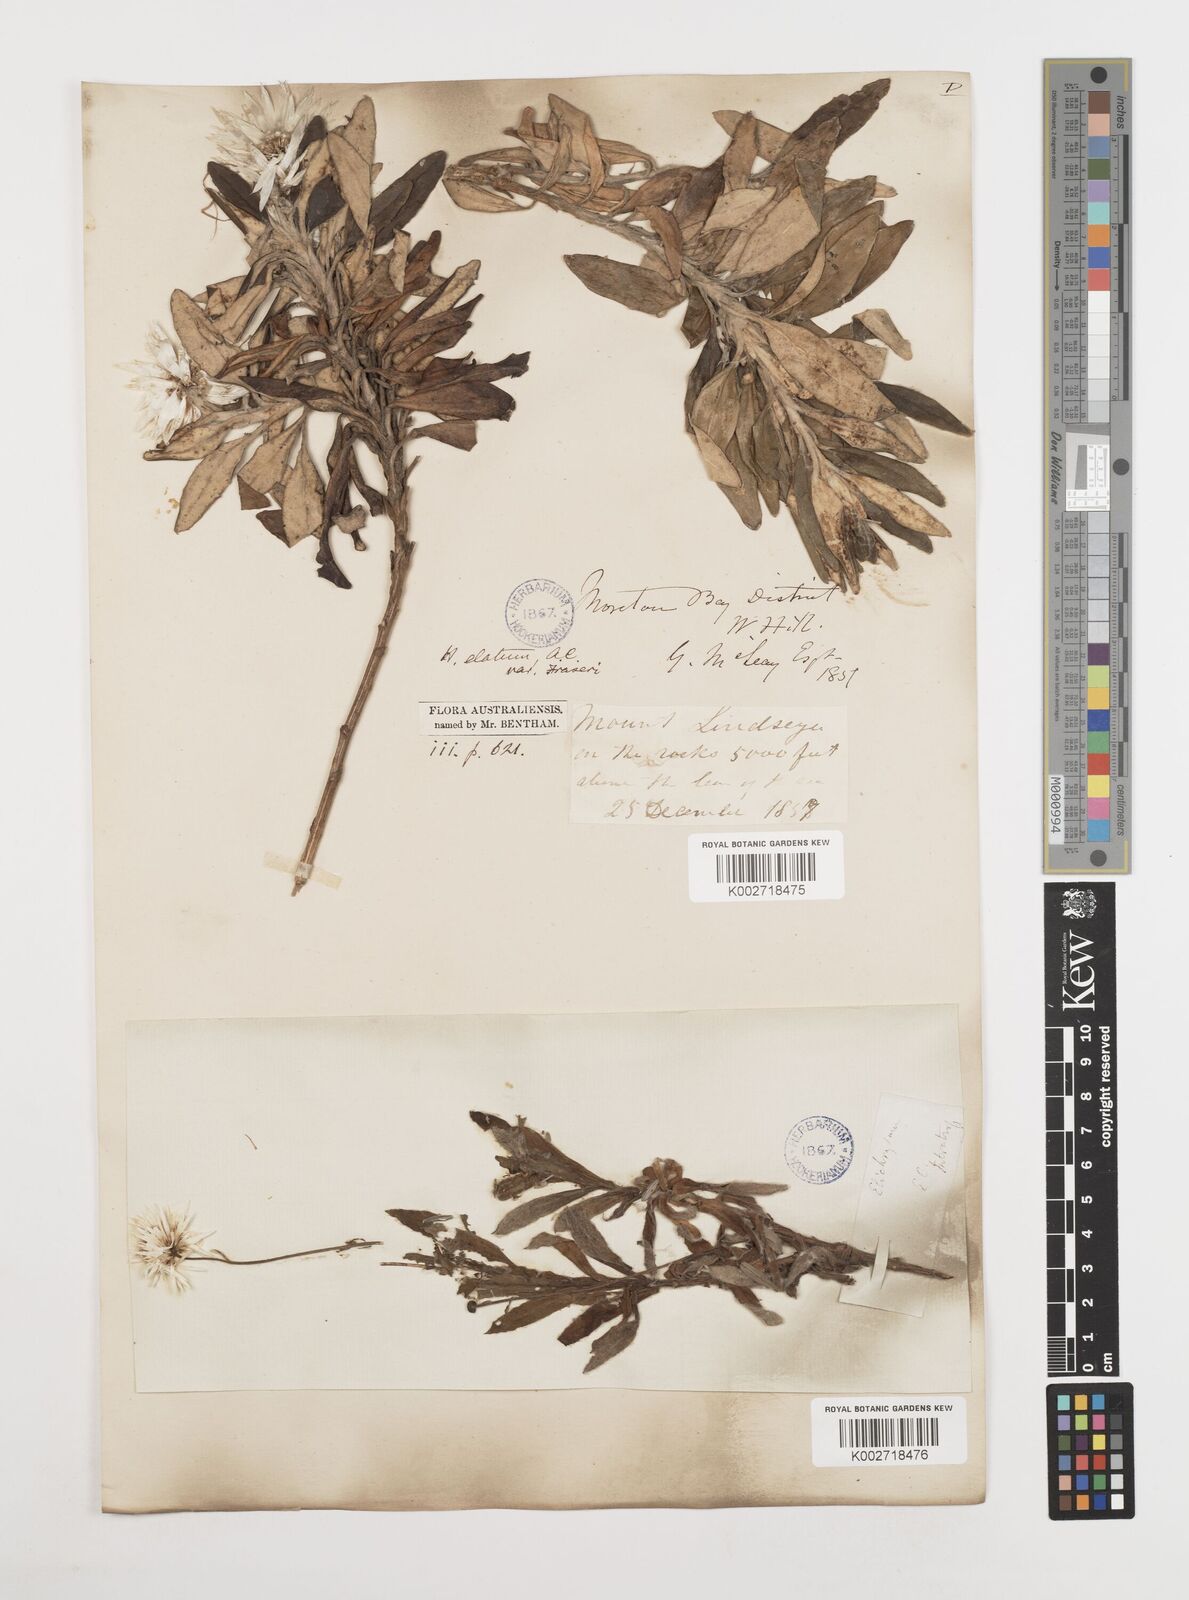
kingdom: Plantae
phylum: Tracheophyta
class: Magnoliopsida
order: Asterales
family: Asteraceae
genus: Coronidium
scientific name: Coronidium lanuginosum
